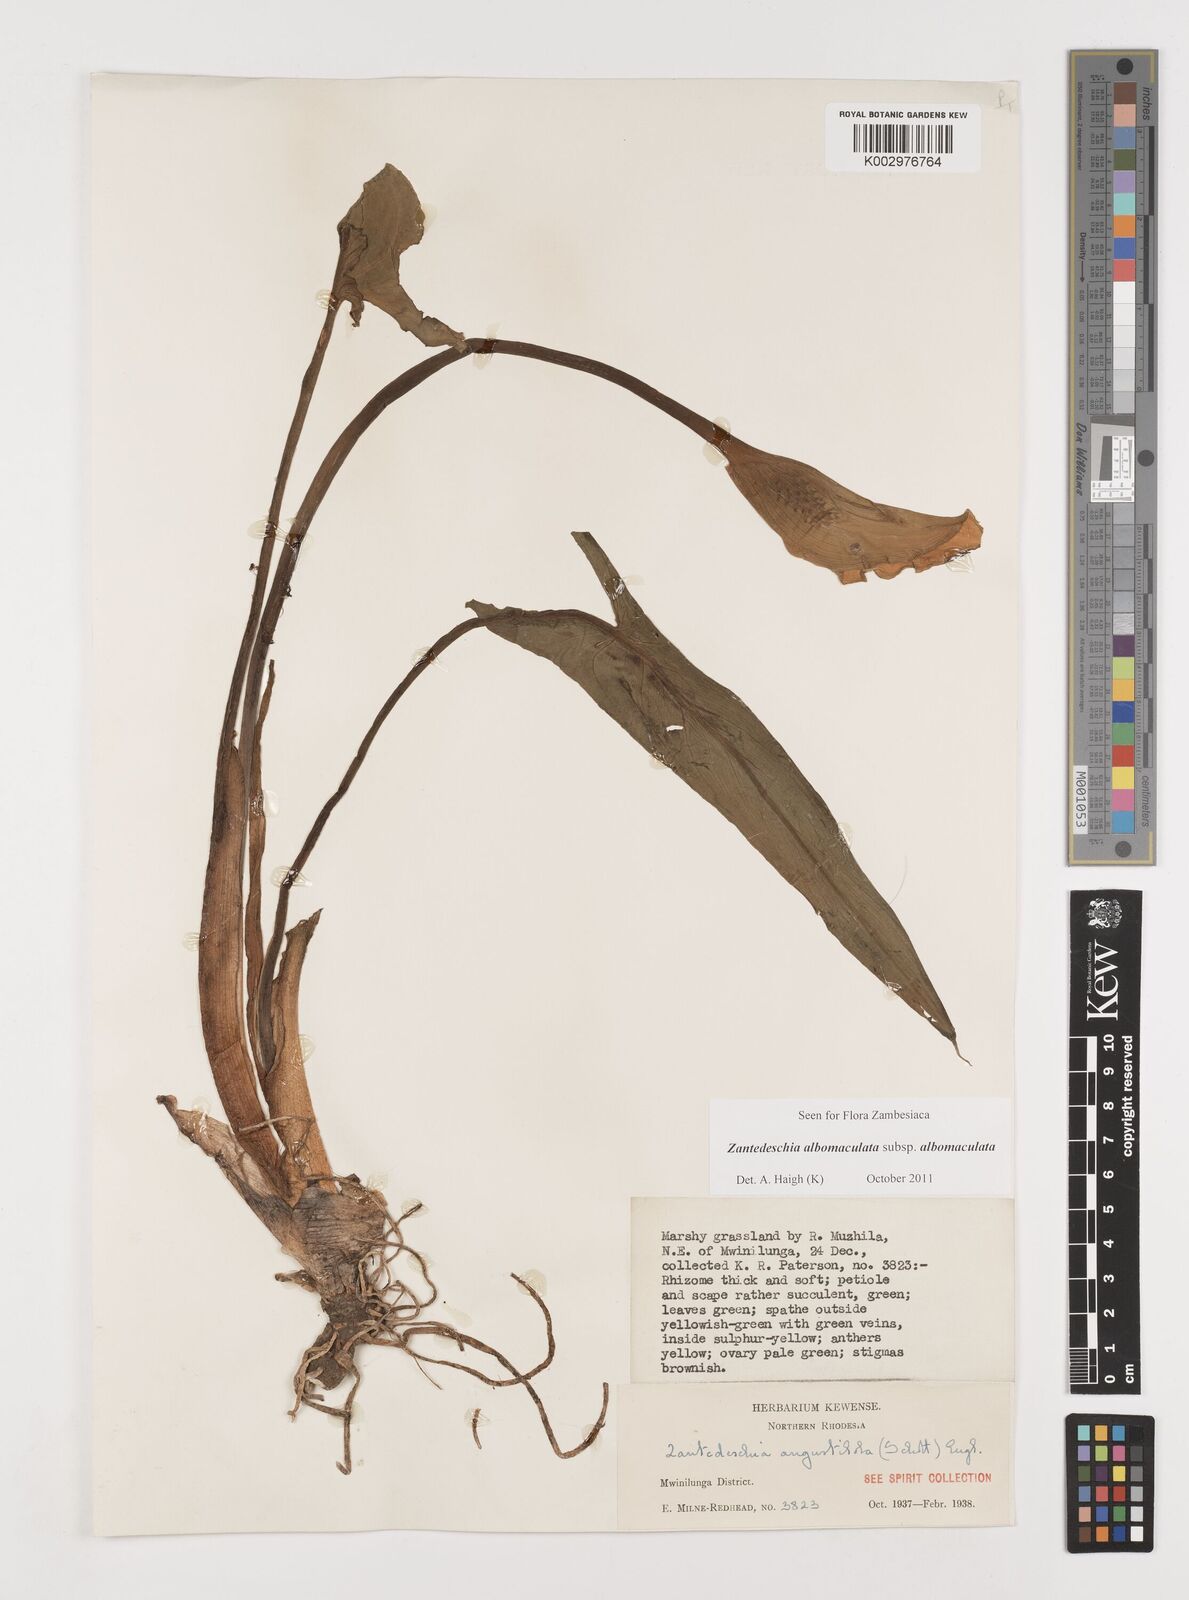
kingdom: Plantae
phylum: Tracheophyta
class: Liliopsida
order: Alismatales
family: Araceae
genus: Zantedeschia
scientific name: Zantedeschia albomaculata
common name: Spotted calla lily
